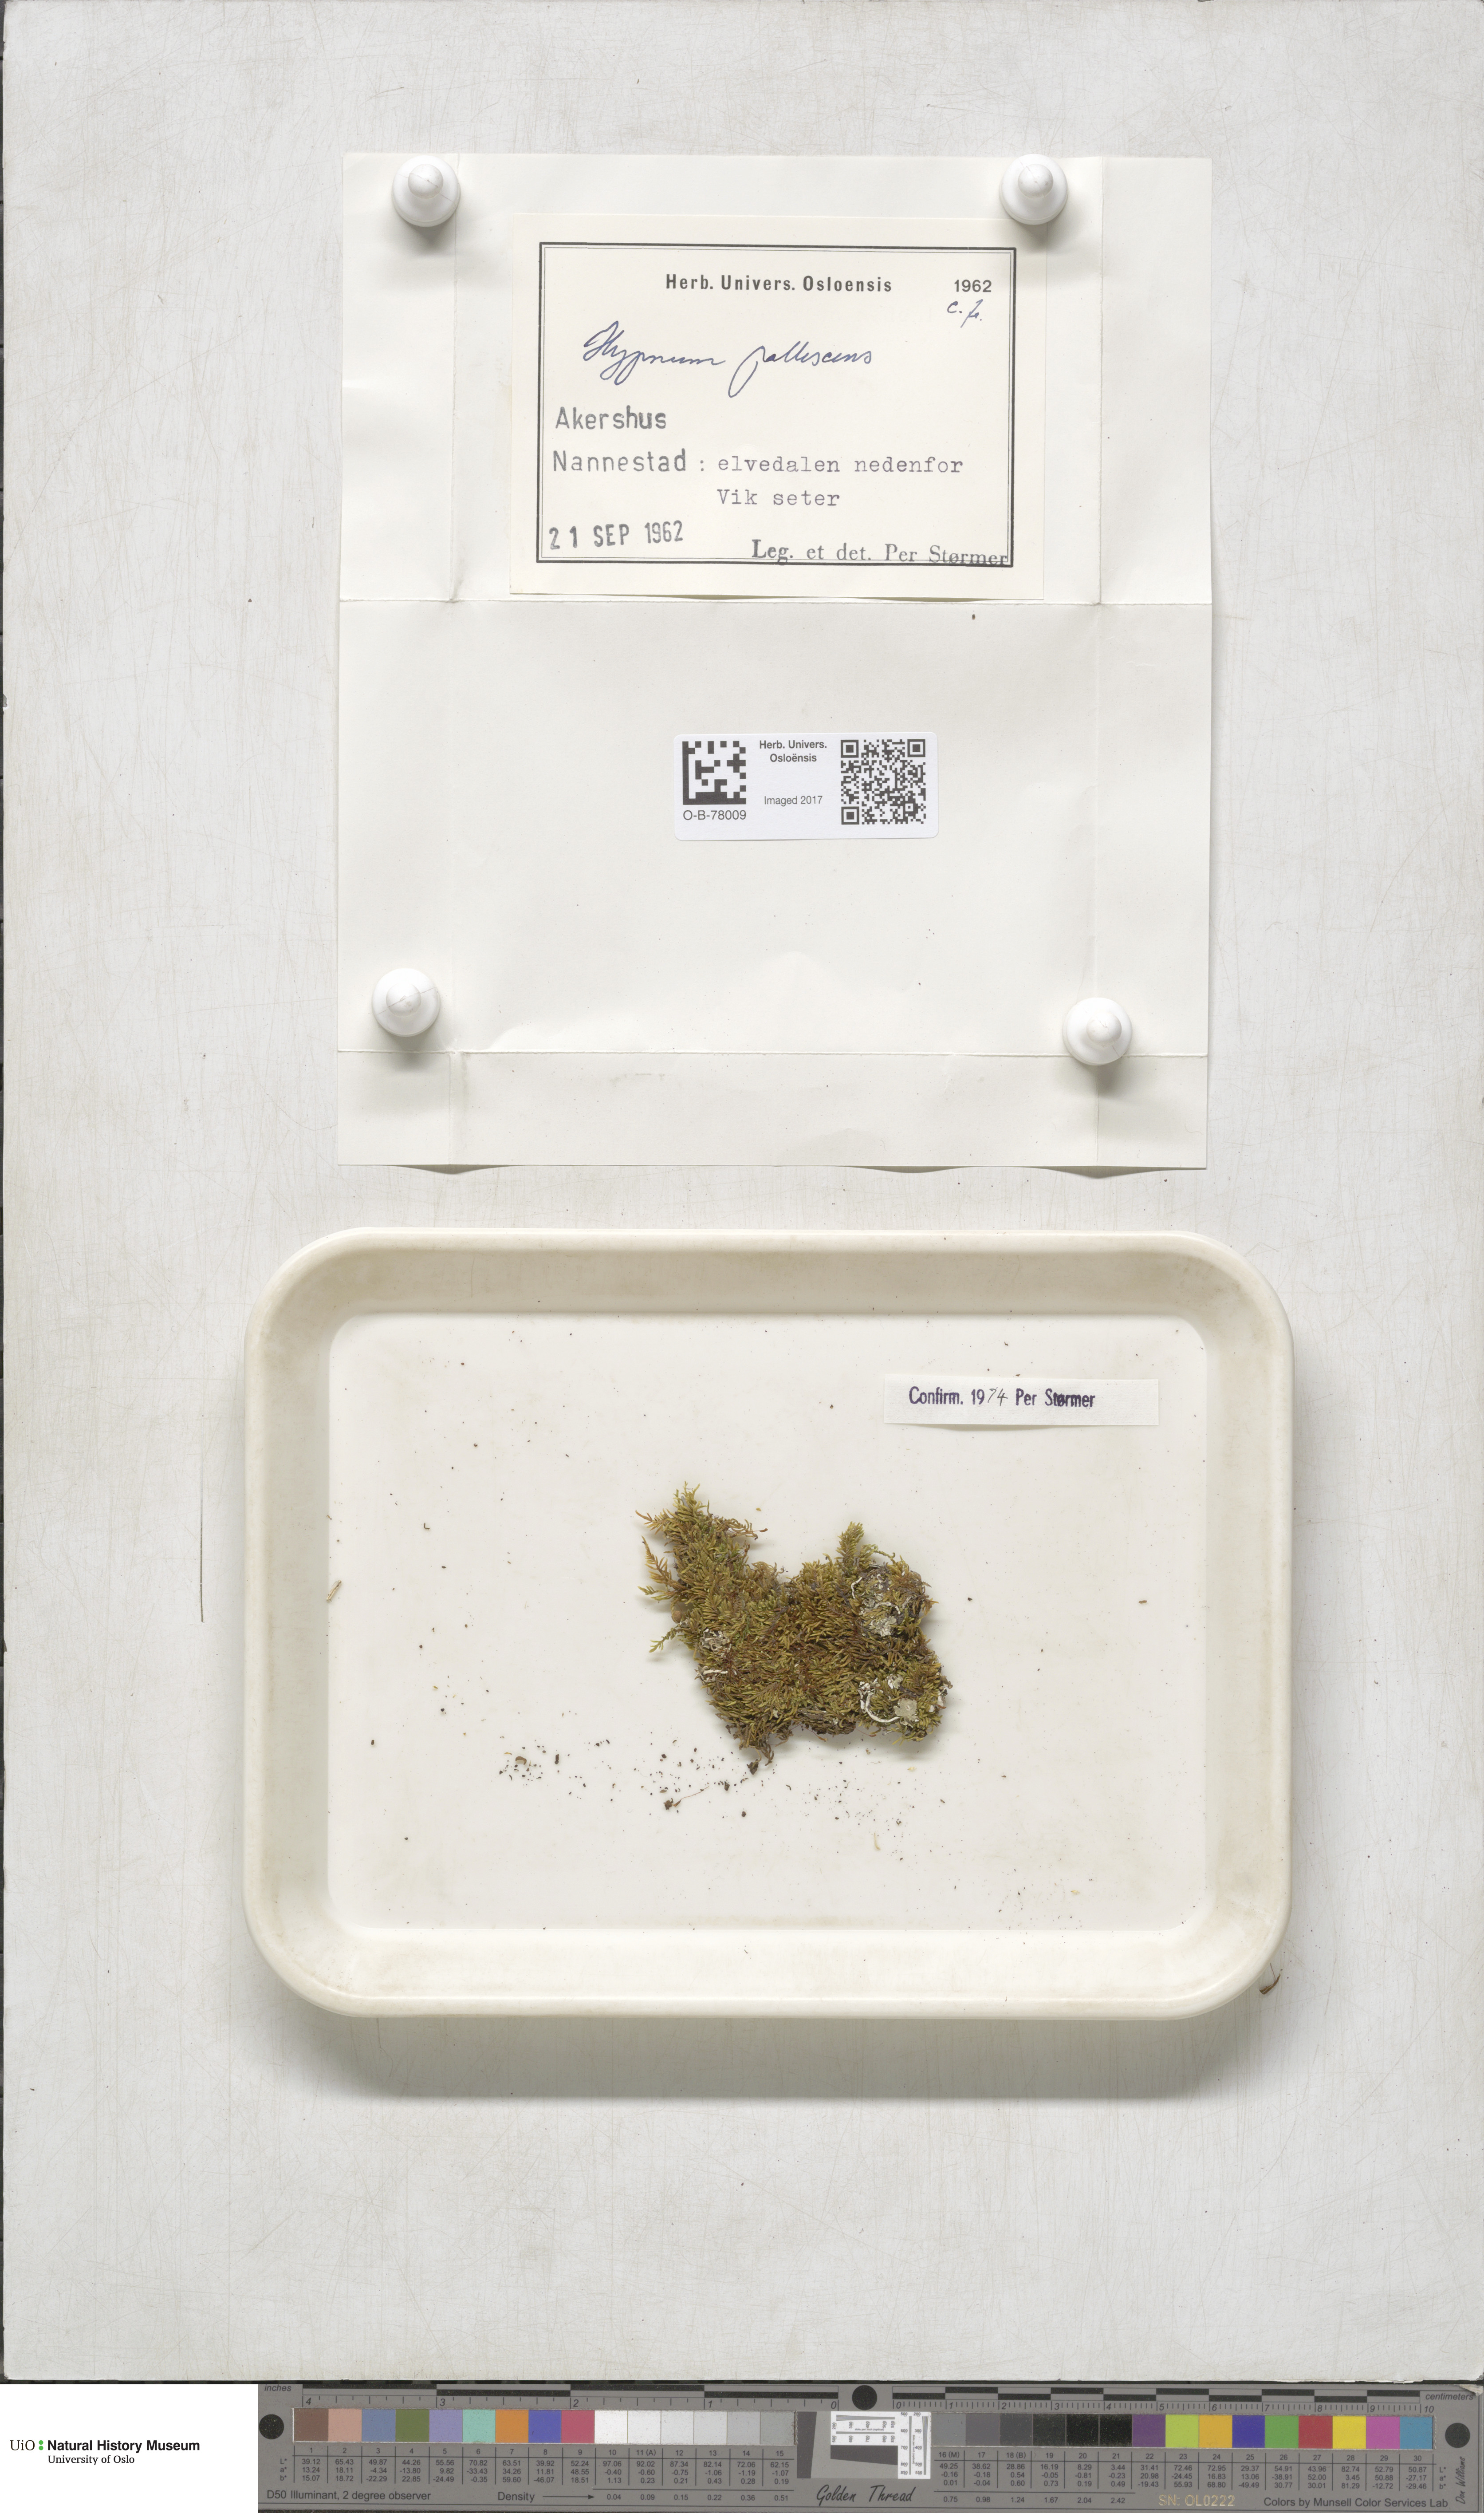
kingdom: Plantae
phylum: Bryophyta
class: Bryopsida
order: Hypnales
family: Jocheniaceae
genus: Jochenia
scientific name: Jochenia pallescens
